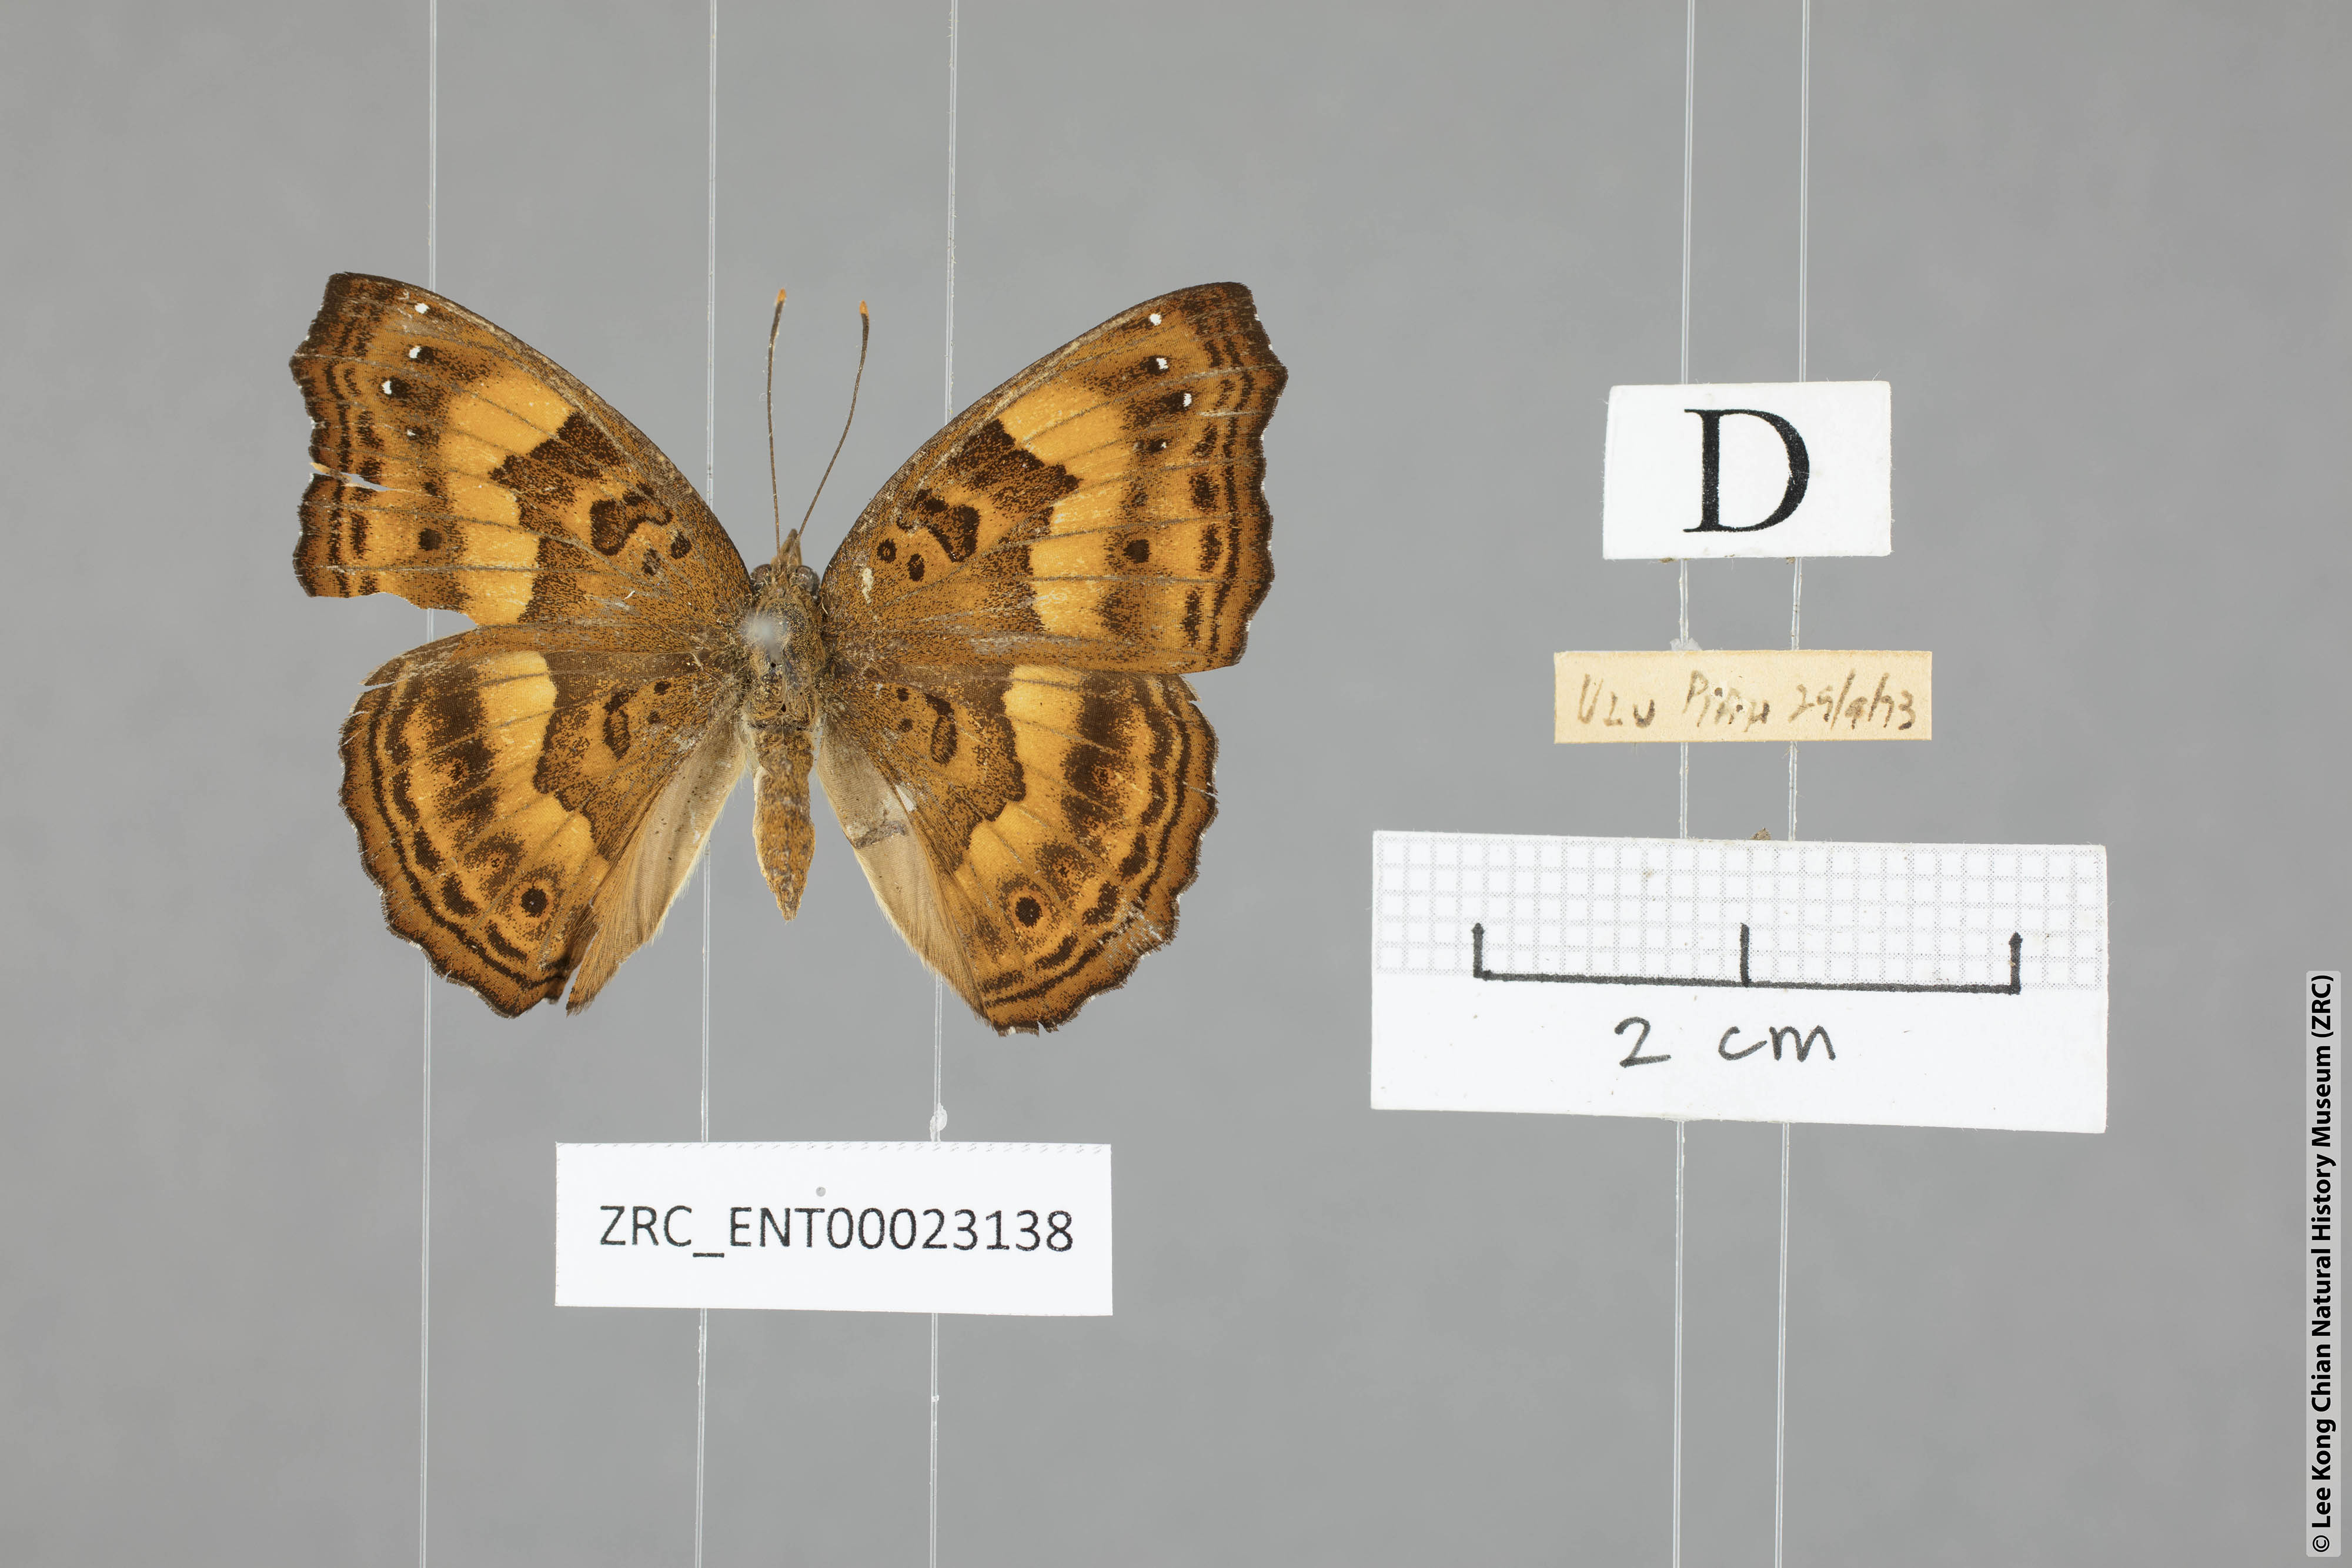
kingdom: Animalia
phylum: Arthropoda
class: Insecta
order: Lepidoptera
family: Nymphalidae
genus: Apatura
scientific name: Apatura Rohana spec
